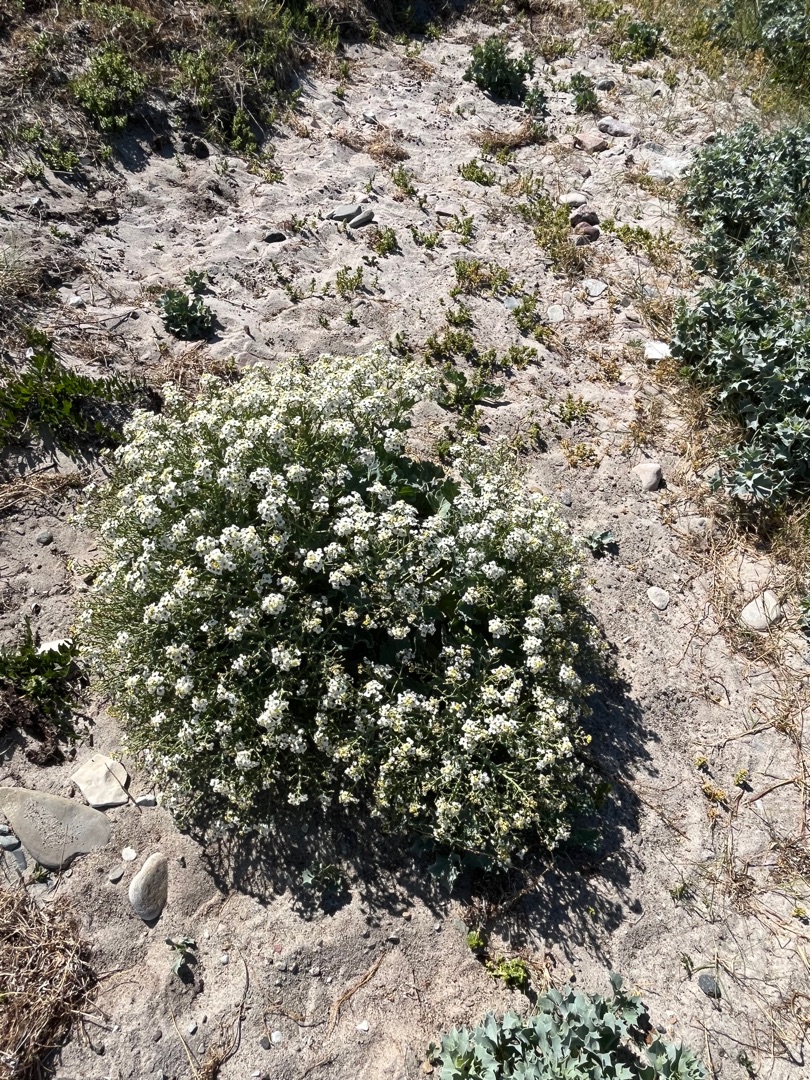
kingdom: Plantae
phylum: Tracheophyta
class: Magnoliopsida
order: Brassicales
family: Brassicaceae
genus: Crambe
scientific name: Crambe maritima
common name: Strandkål
